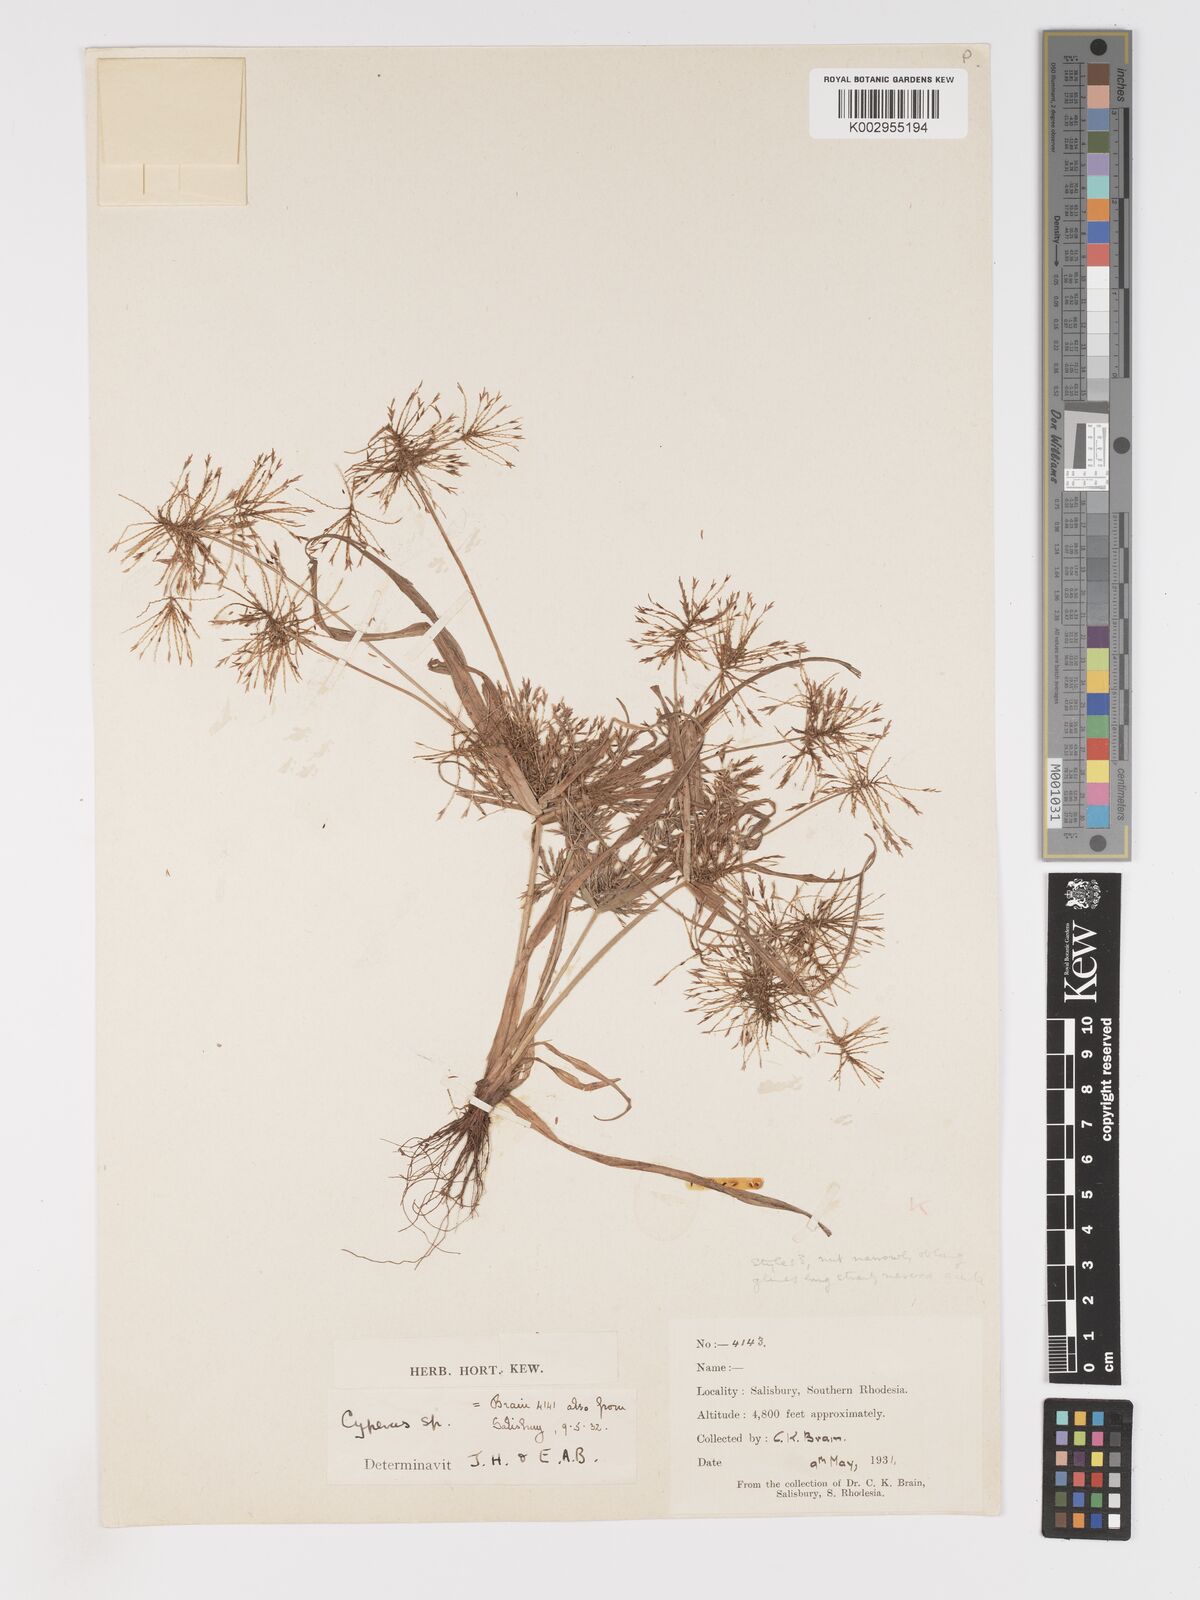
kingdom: Plantae
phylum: Tracheophyta
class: Liliopsida
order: Poales
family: Cyperaceae
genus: Cyperus
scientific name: Cyperus
